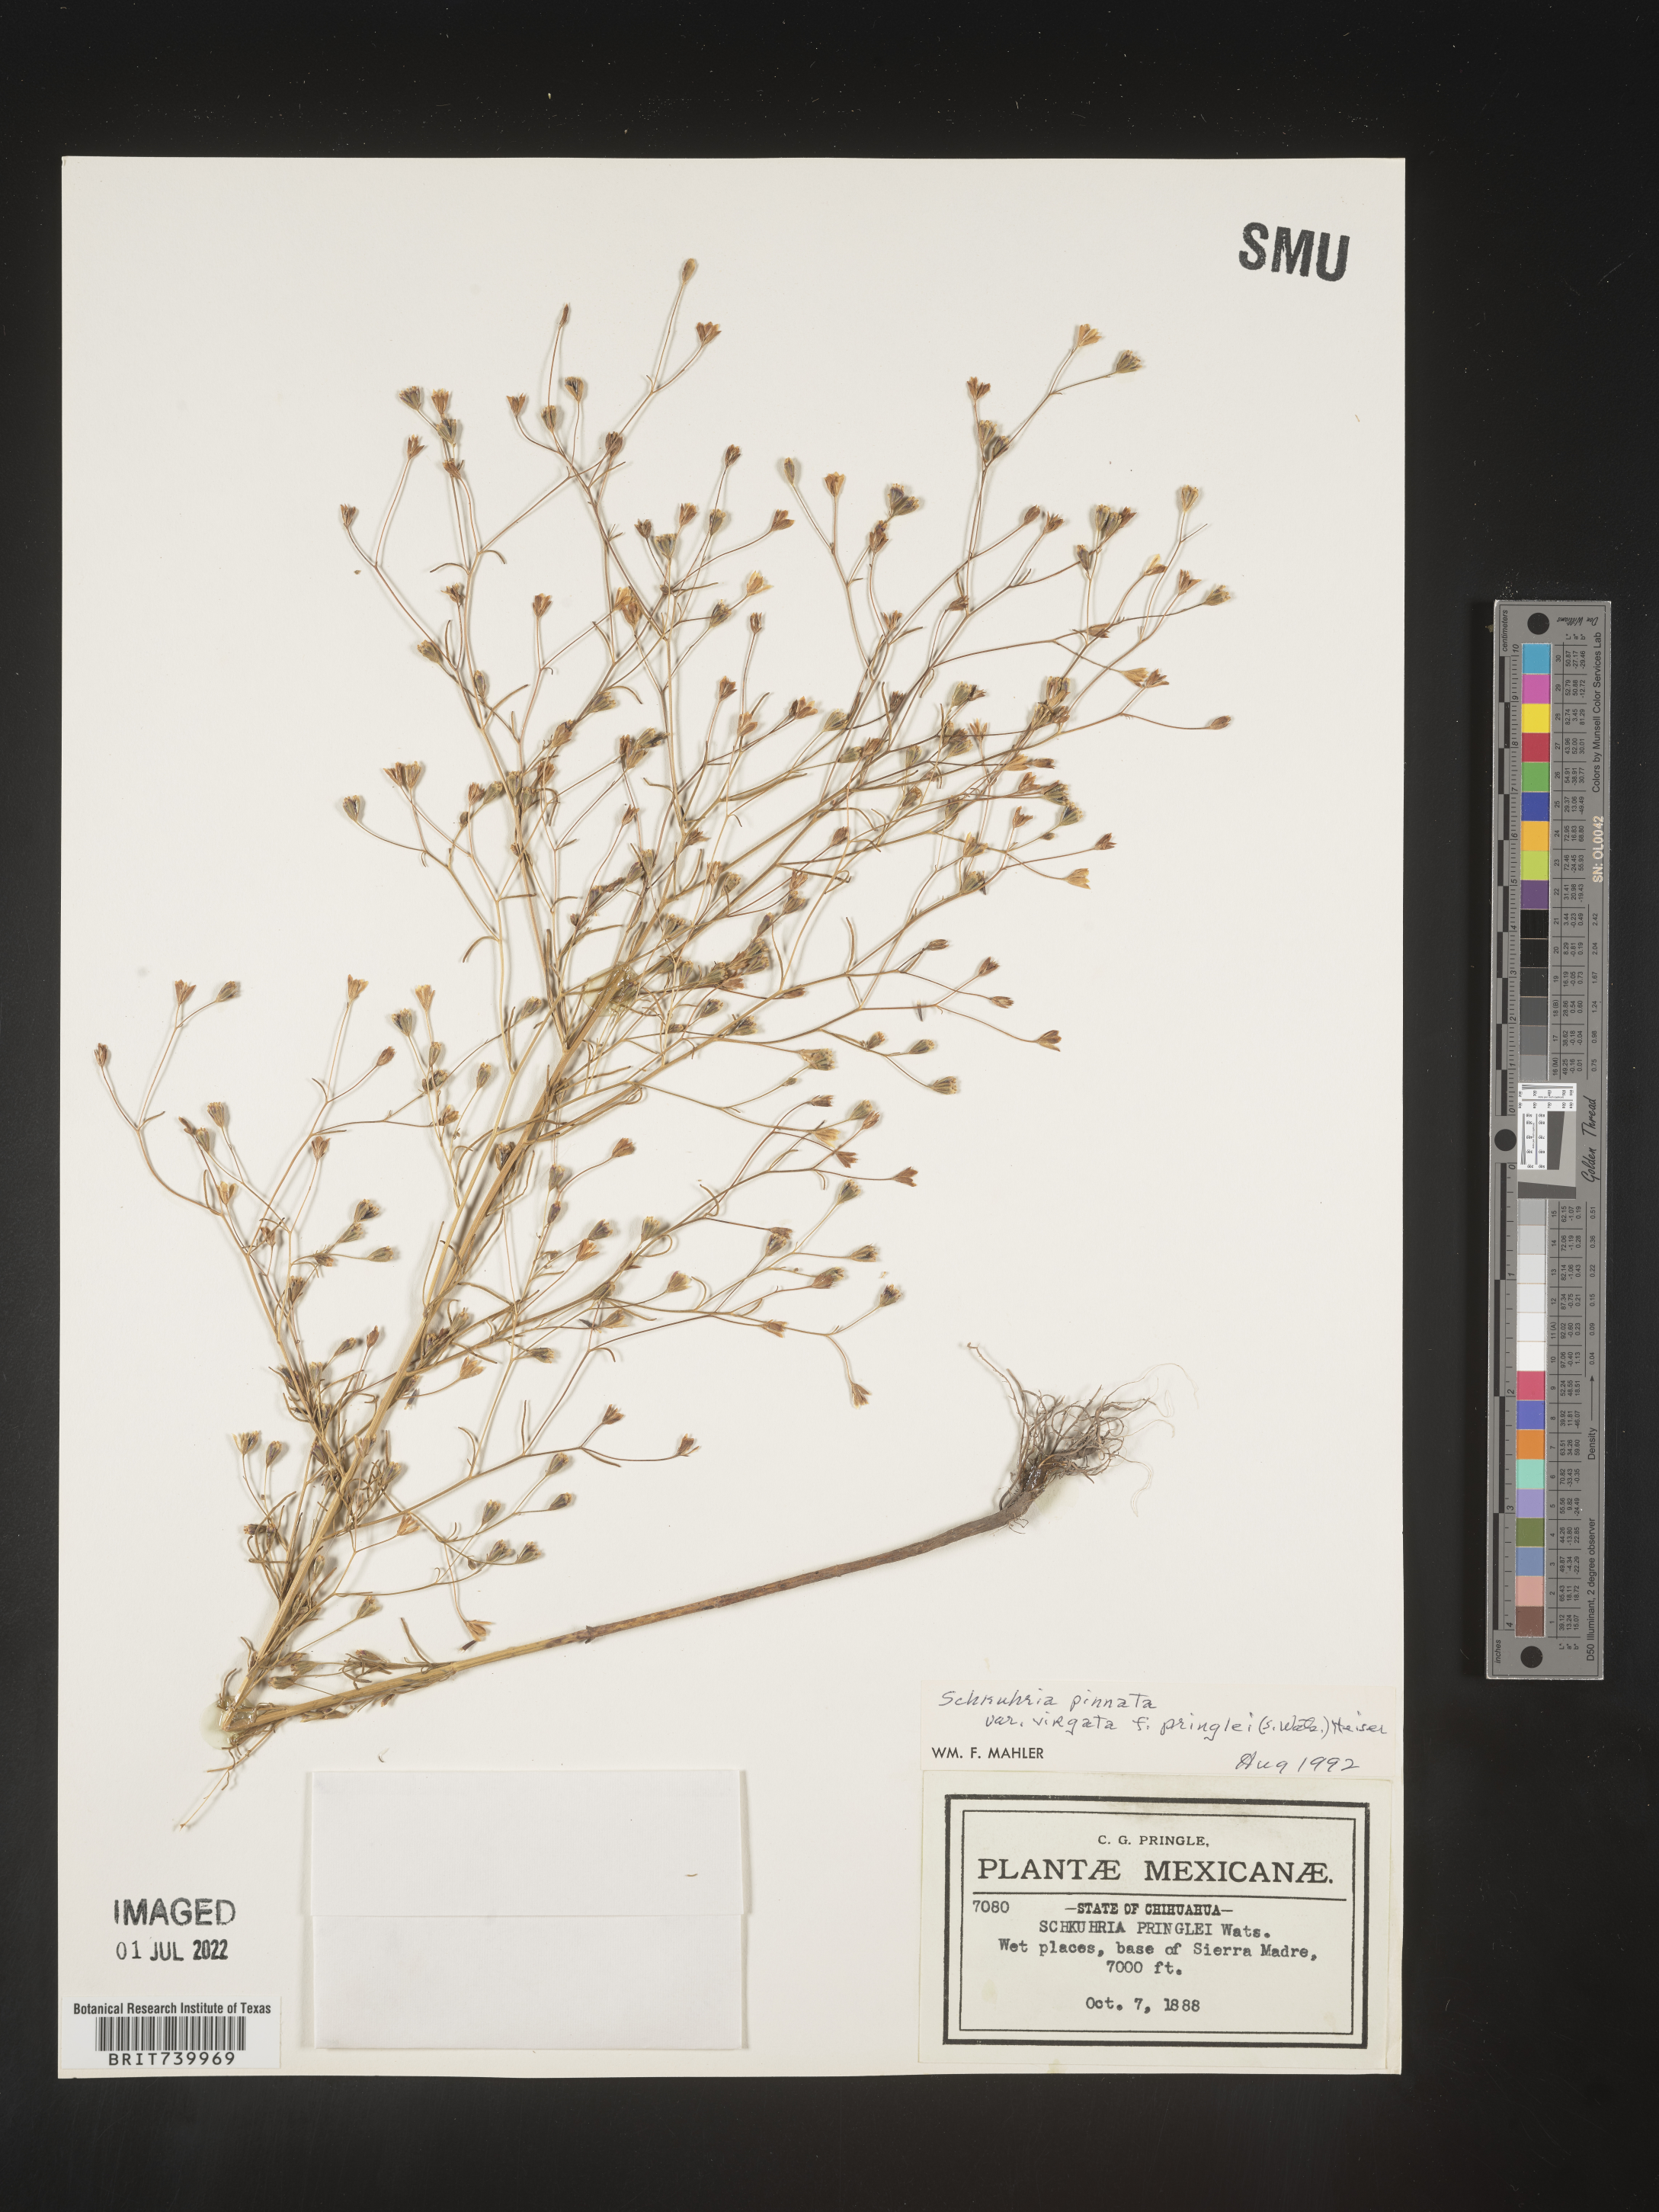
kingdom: Plantae
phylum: Tracheophyta
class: Magnoliopsida
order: Asterales
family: Asteraceae
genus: Schkuhria
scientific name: Schkuhria
